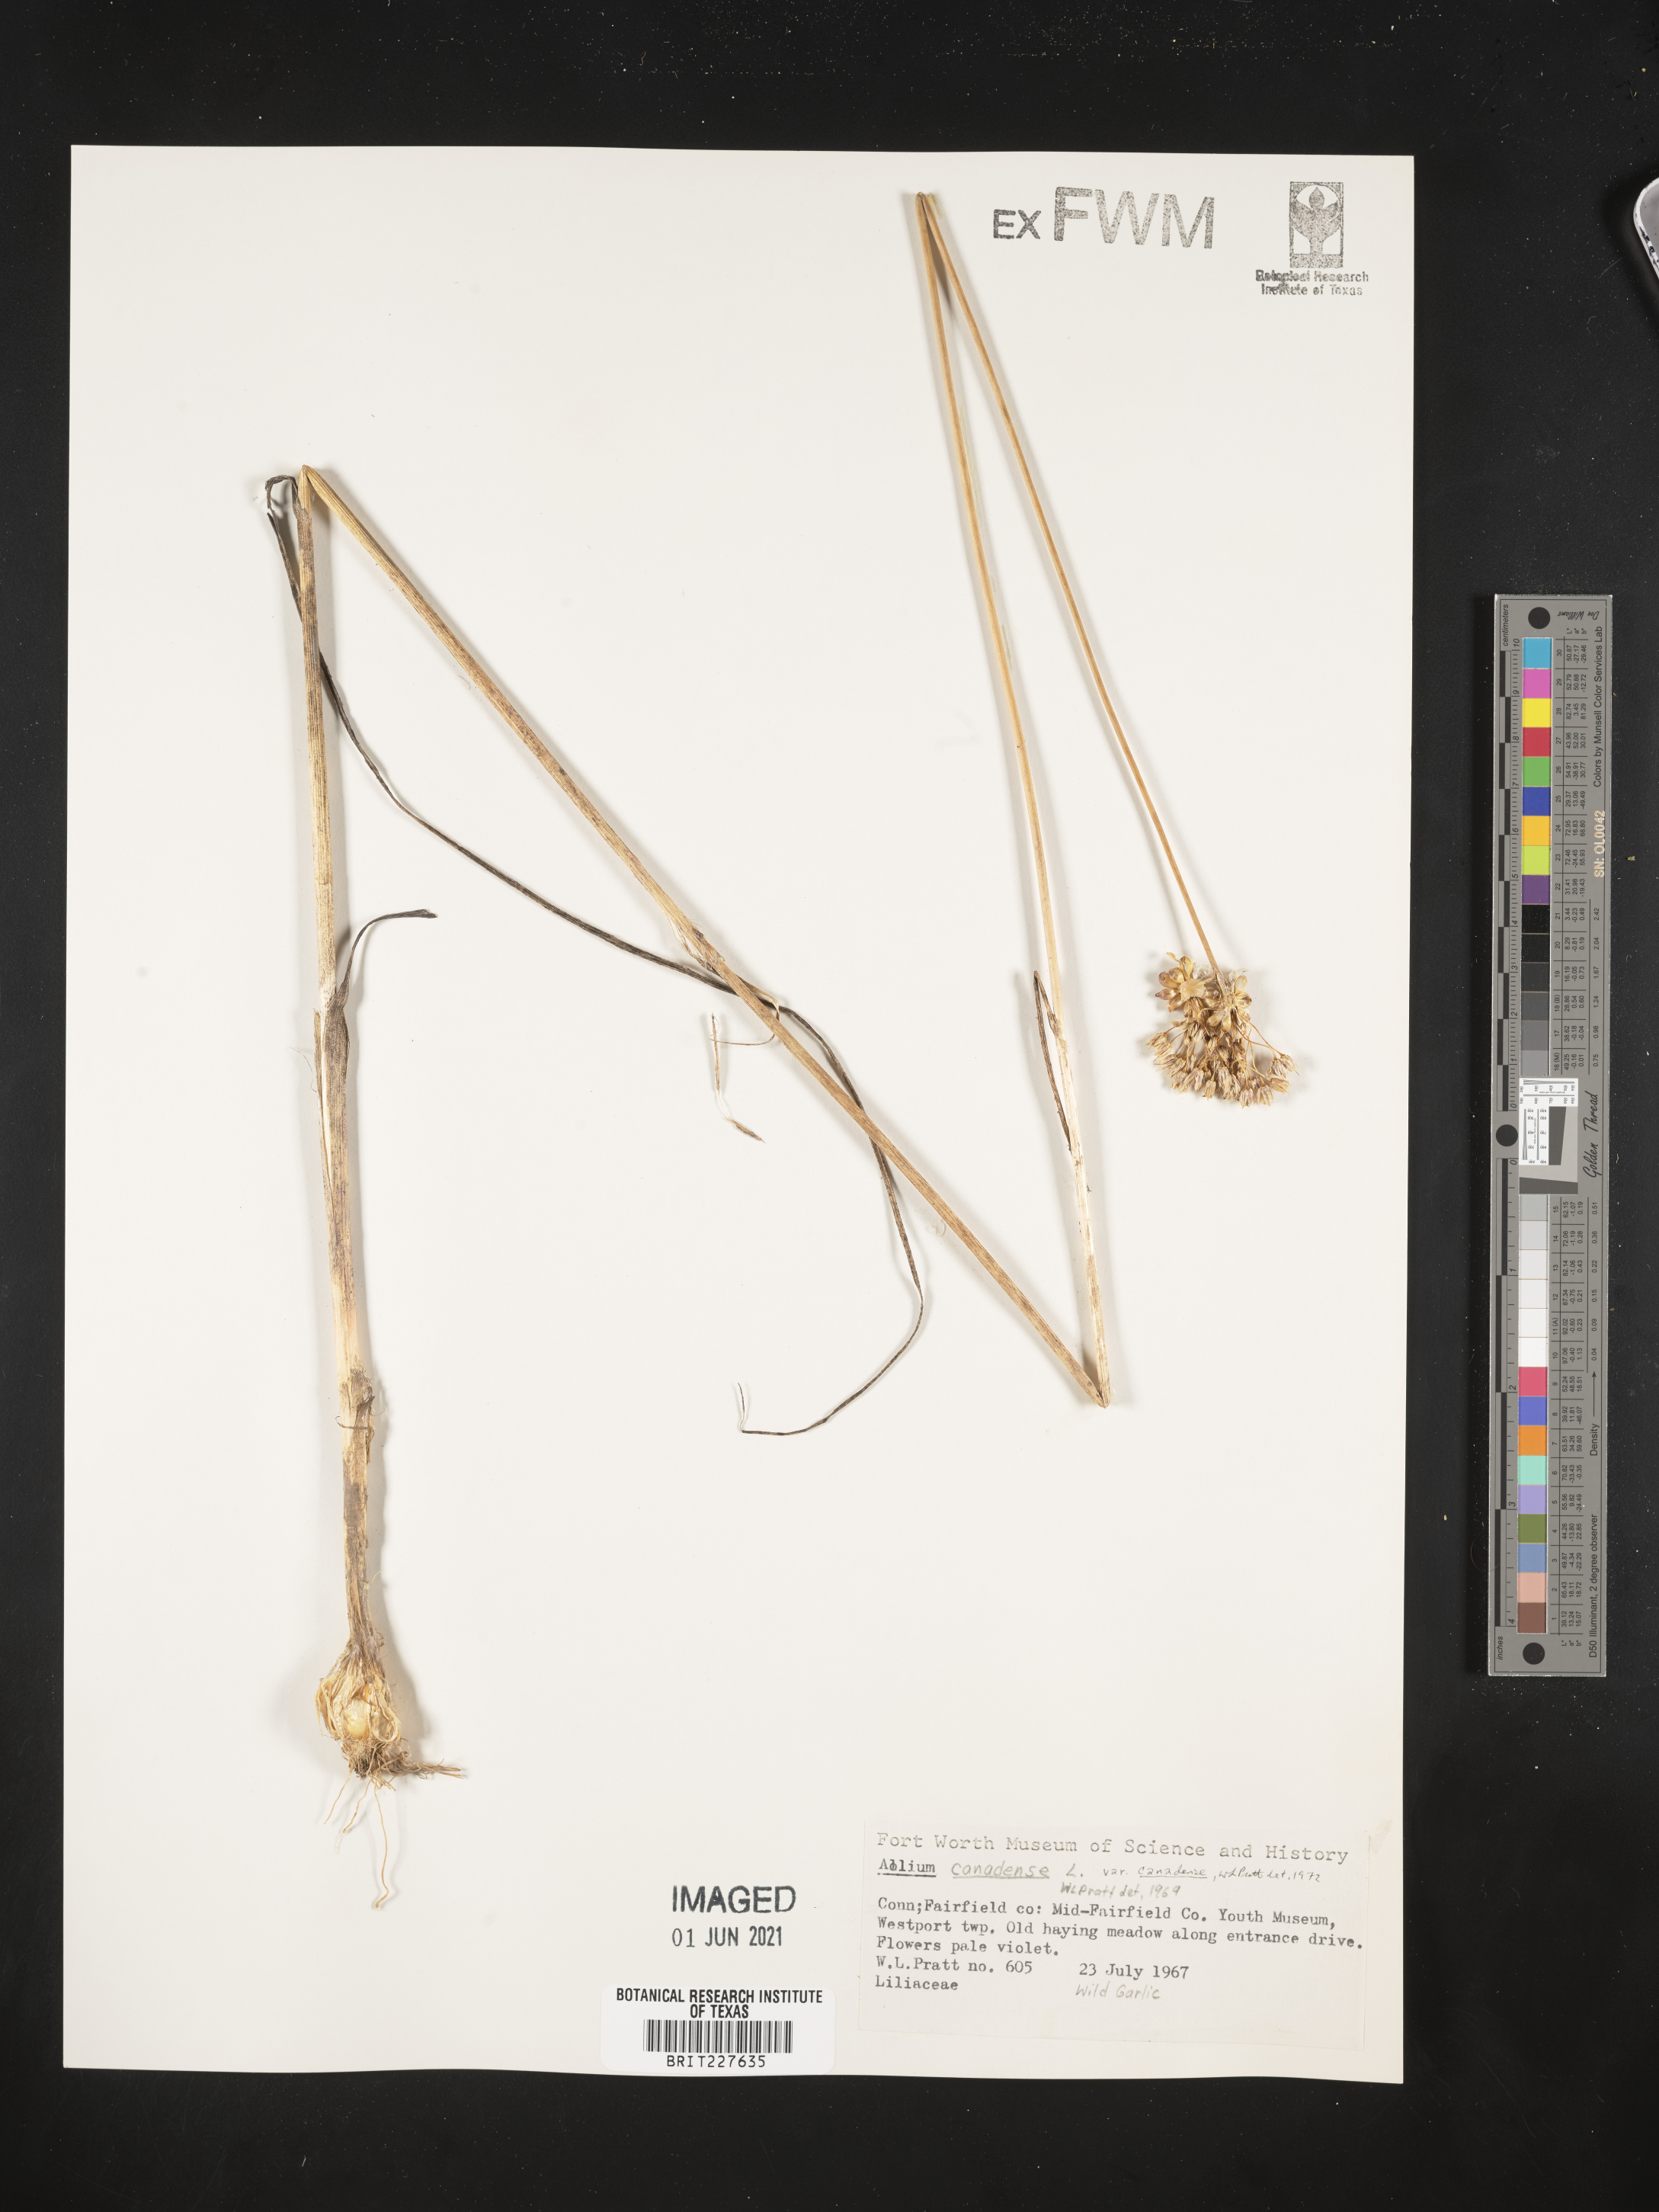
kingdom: Plantae
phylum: Tracheophyta
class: Liliopsida
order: Asparagales
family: Amaryllidaceae
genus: Allium
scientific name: Allium canadense
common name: Meadow garlic
